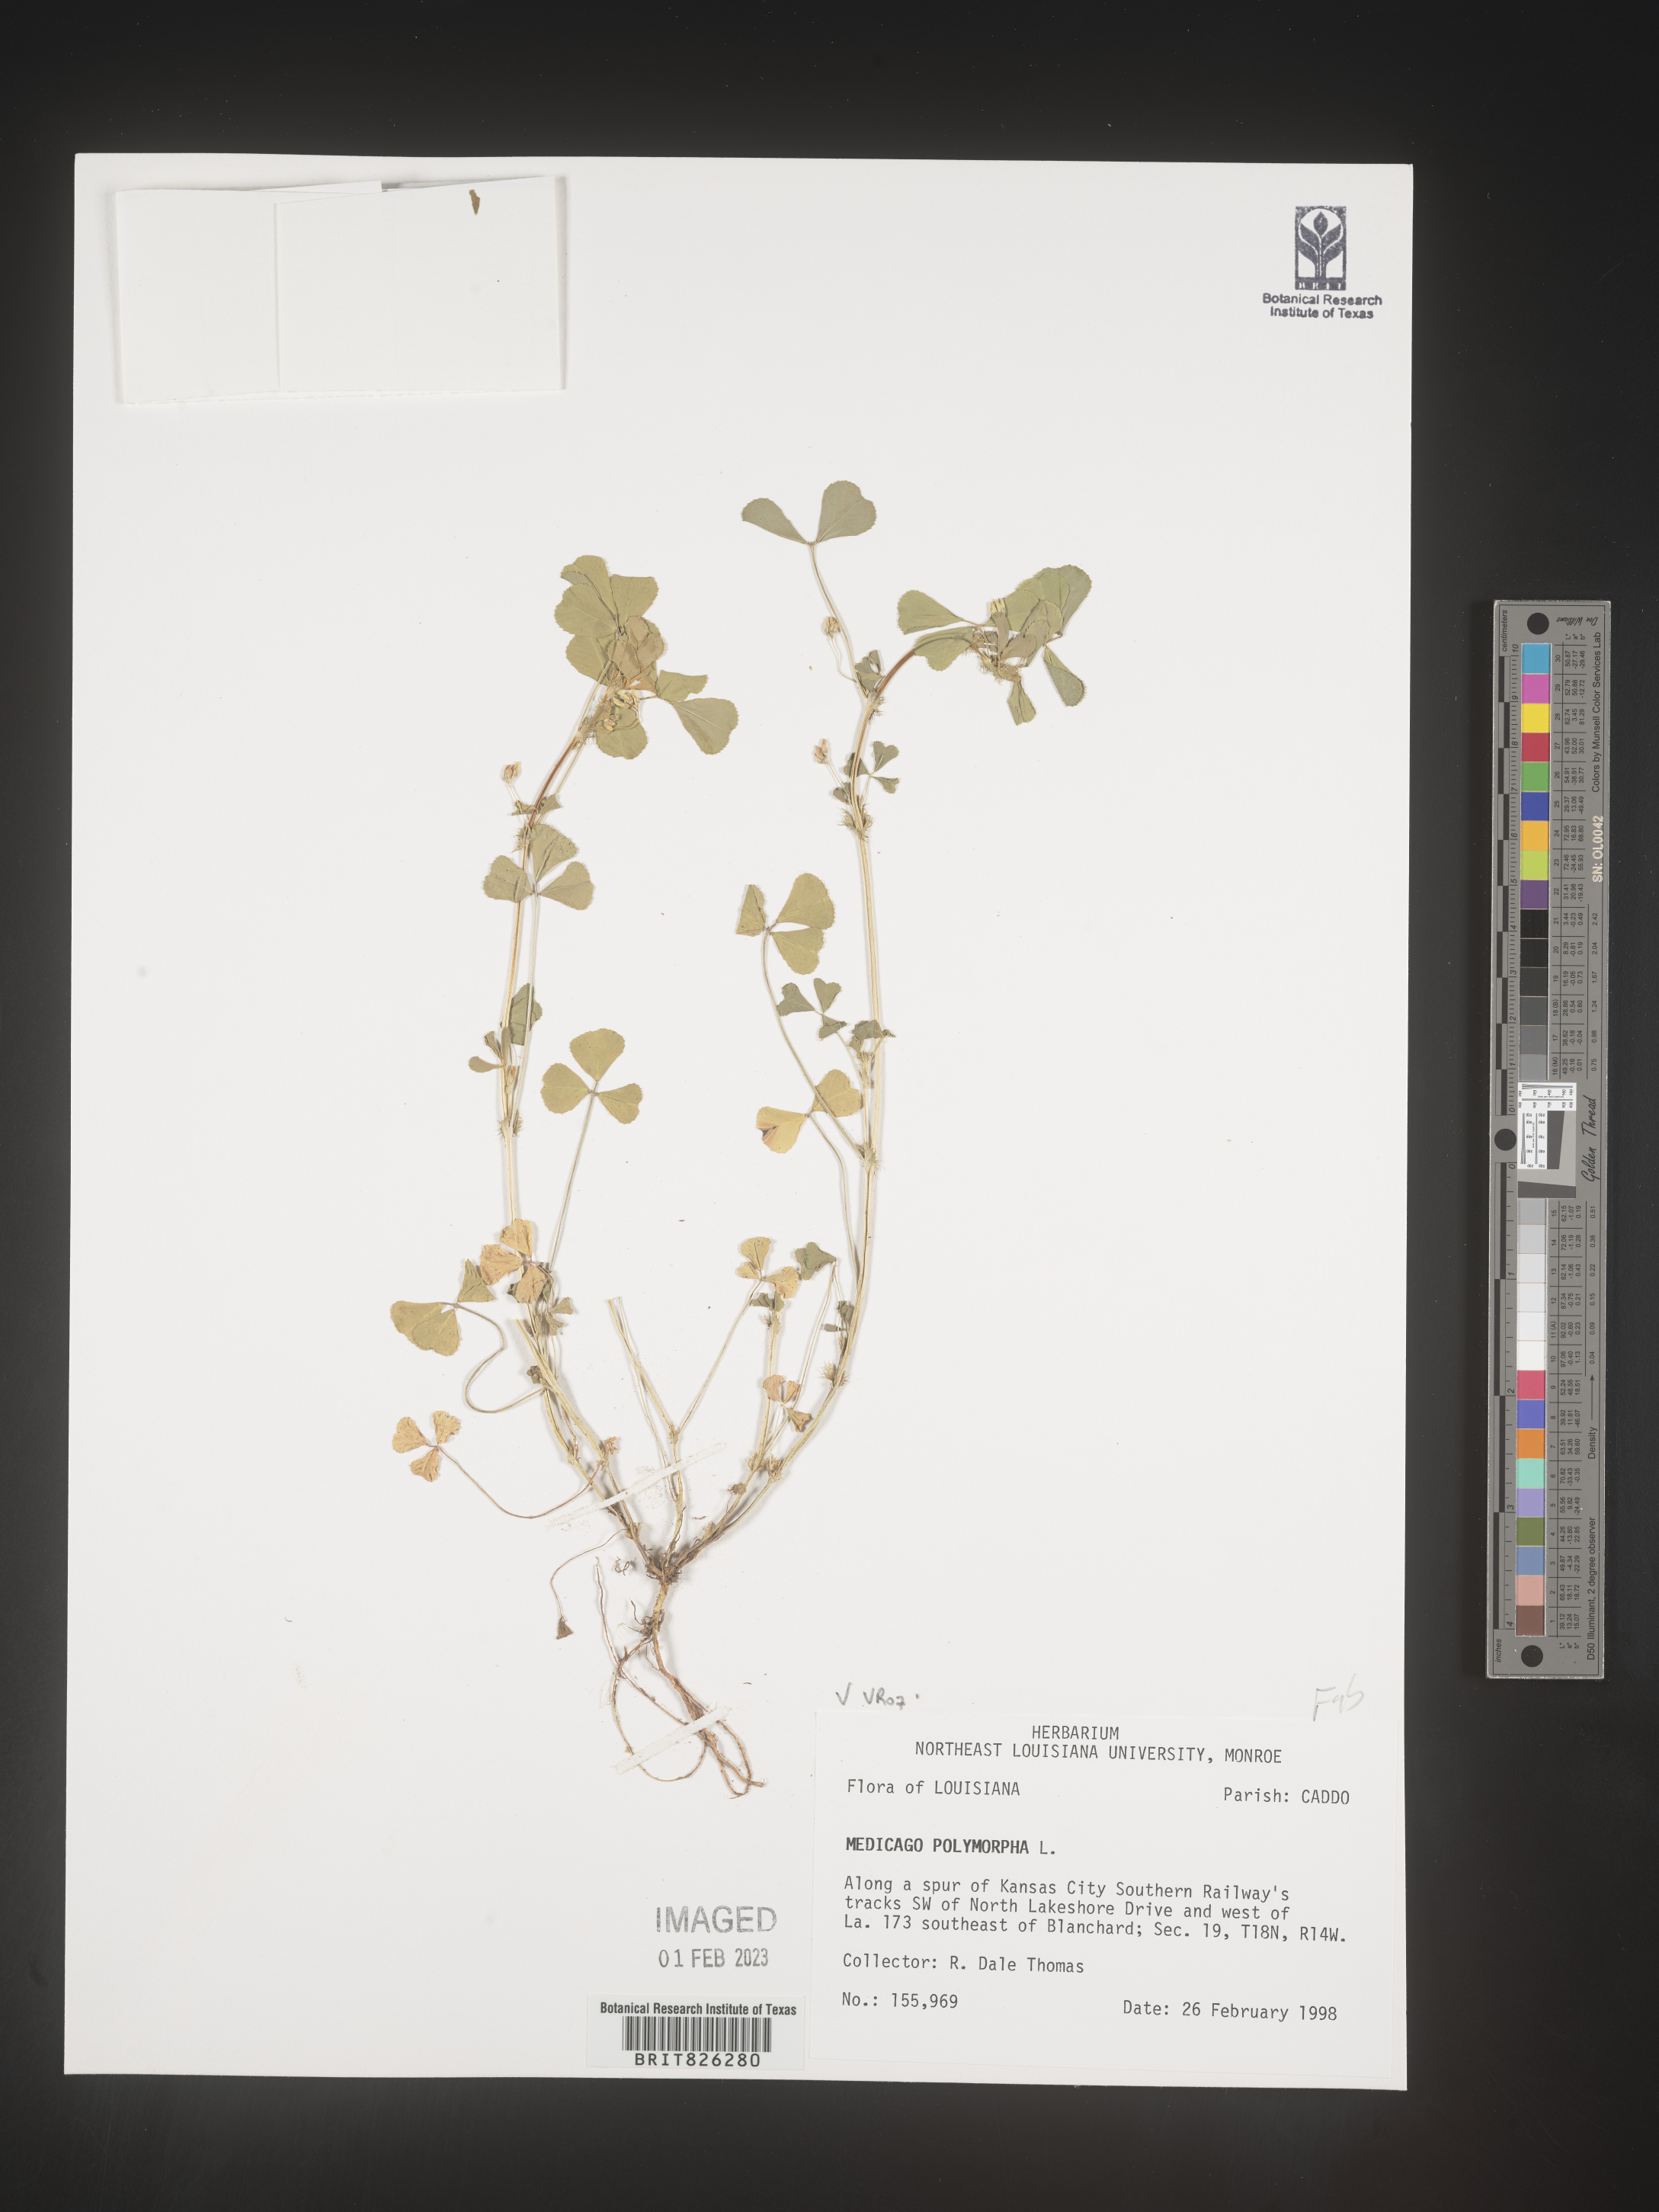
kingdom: Plantae
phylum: Tracheophyta
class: Magnoliopsida
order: Fabales
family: Fabaceae
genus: Medicago
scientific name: Medicago polymorpha
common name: Burclover
